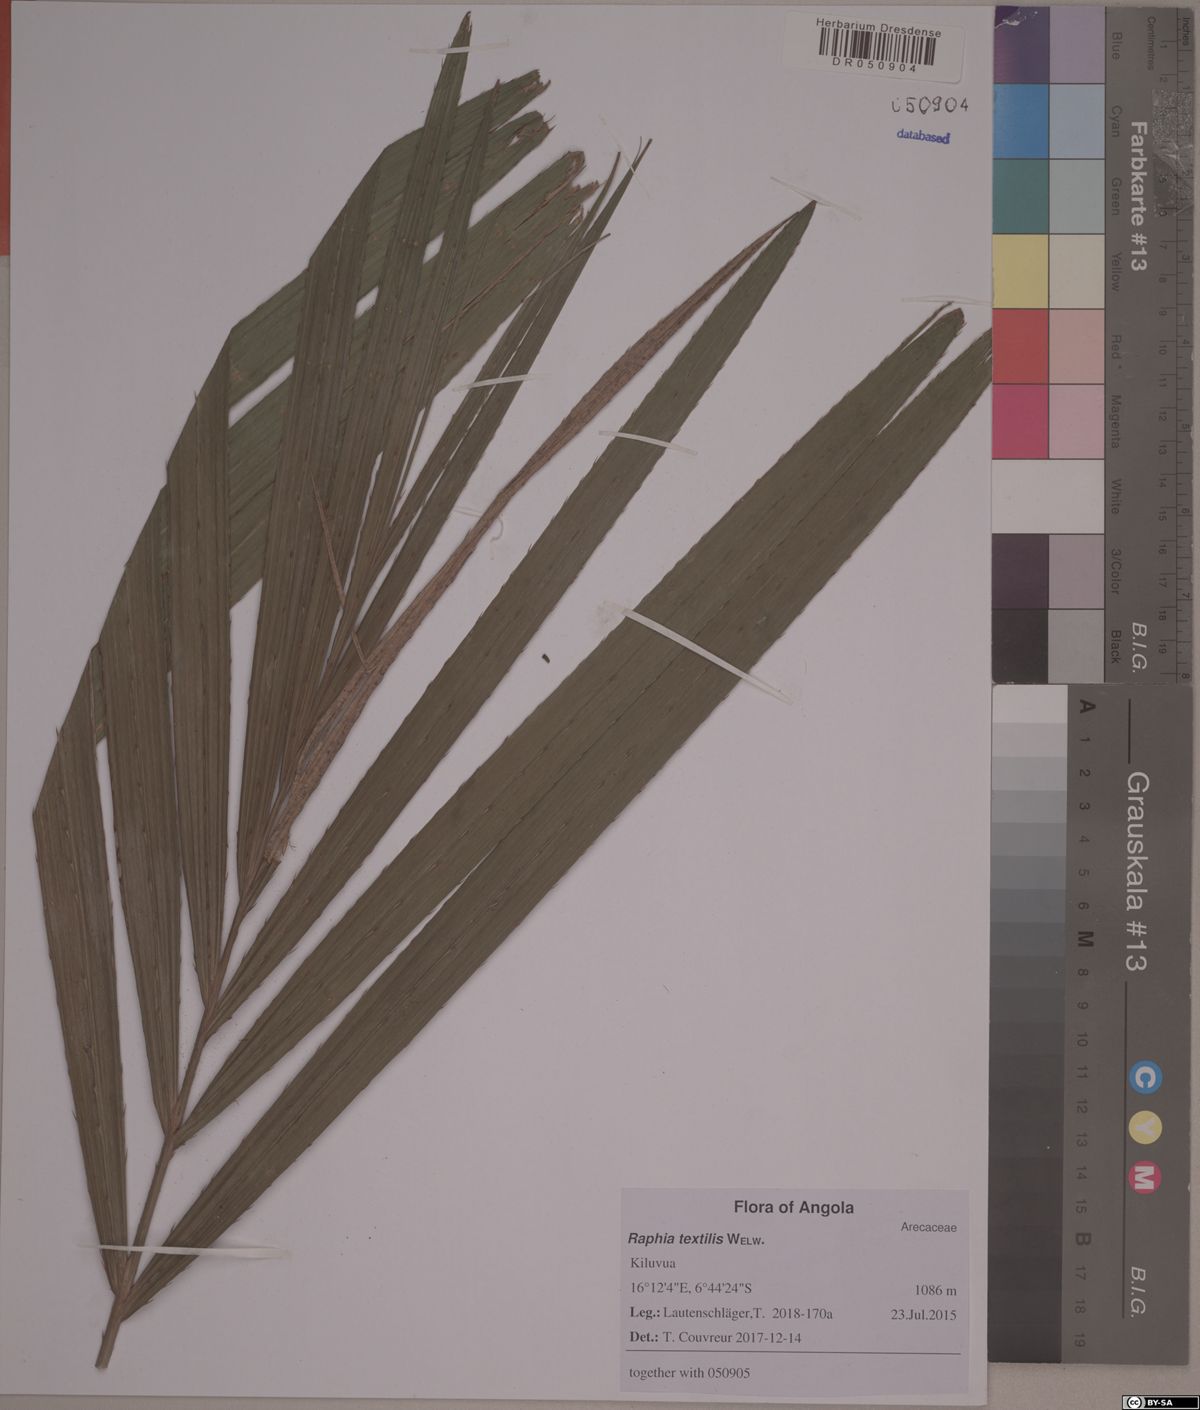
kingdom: Plantae
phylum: Tracheophyta
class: Liliopsida
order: Arecales
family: Arecaceae
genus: Raphia
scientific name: Raphia textilis
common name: Raphia palm
